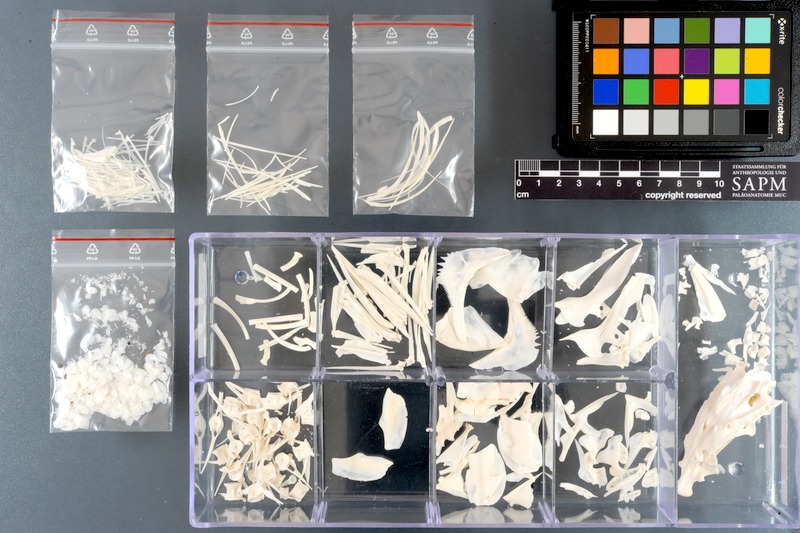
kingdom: Animalia
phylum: Chordata
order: Perciformes
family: Haemulidae
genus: Pomadasys
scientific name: Pomadasys commersonnii
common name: Smallspotted grunter
